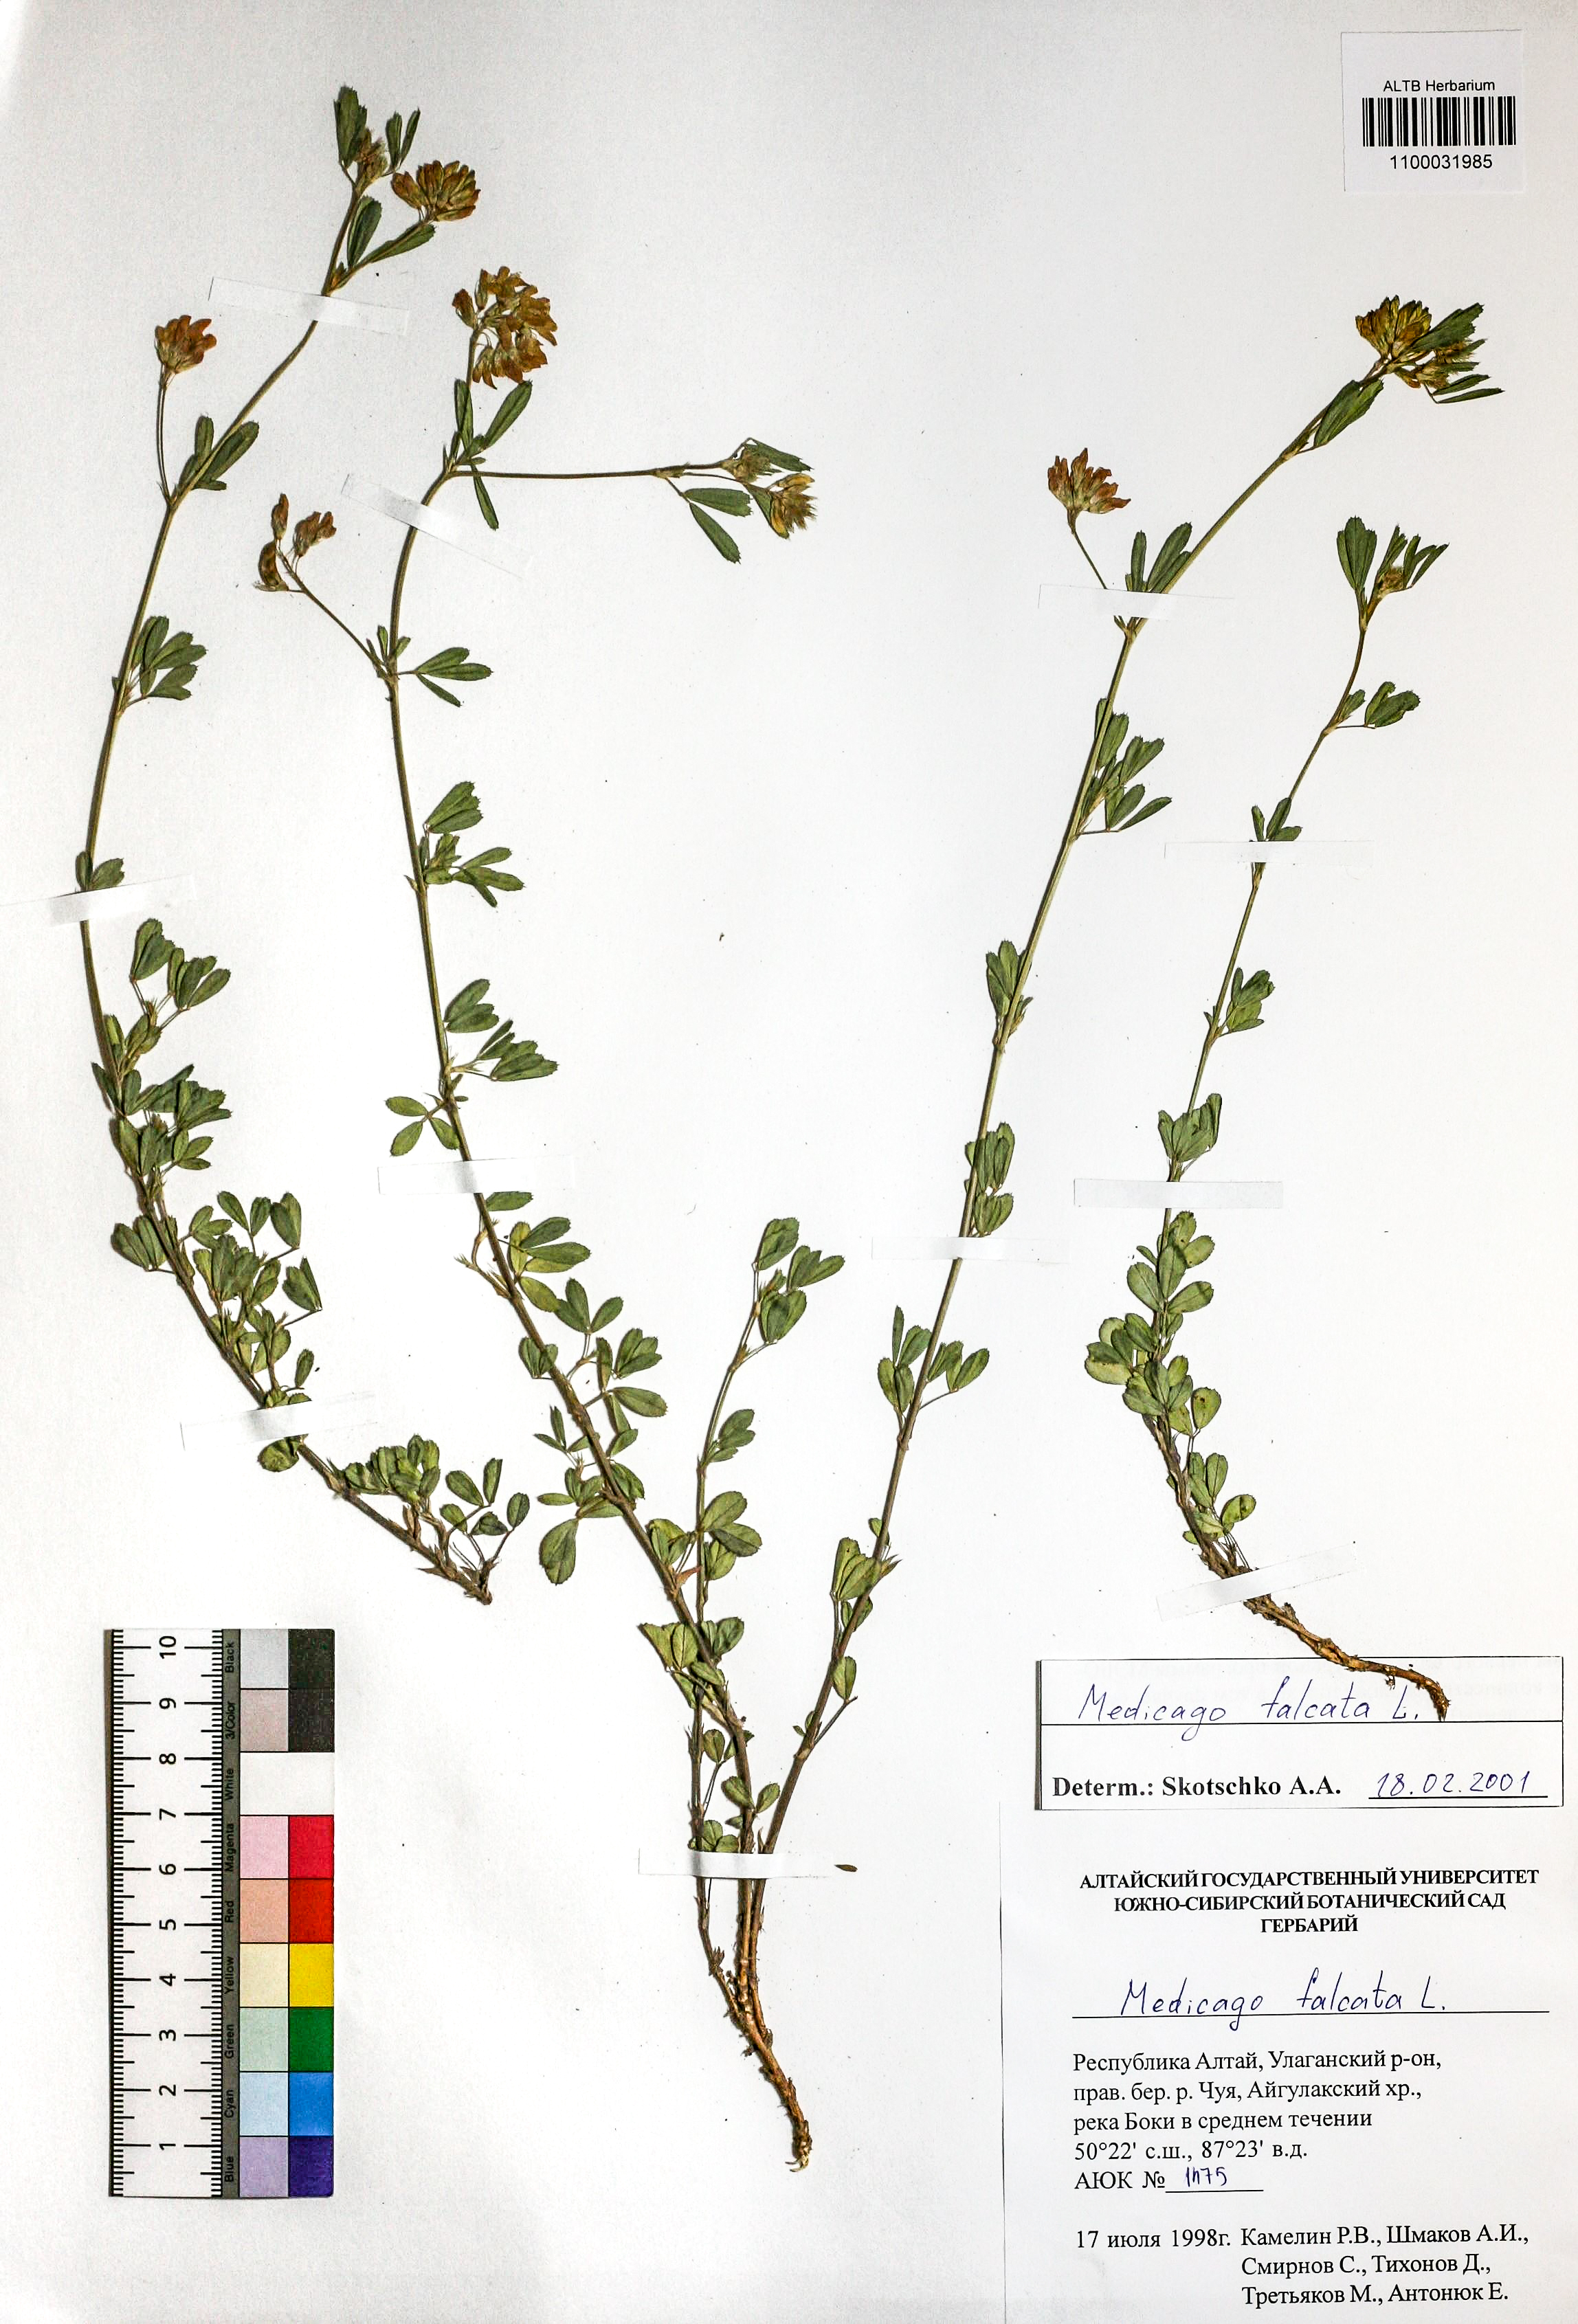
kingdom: Plantae
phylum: Tracheophyta
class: Magnoliopsida
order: Fabales
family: Fabaceae
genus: Medicago
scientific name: Medicago falcata
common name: Sickle medick
